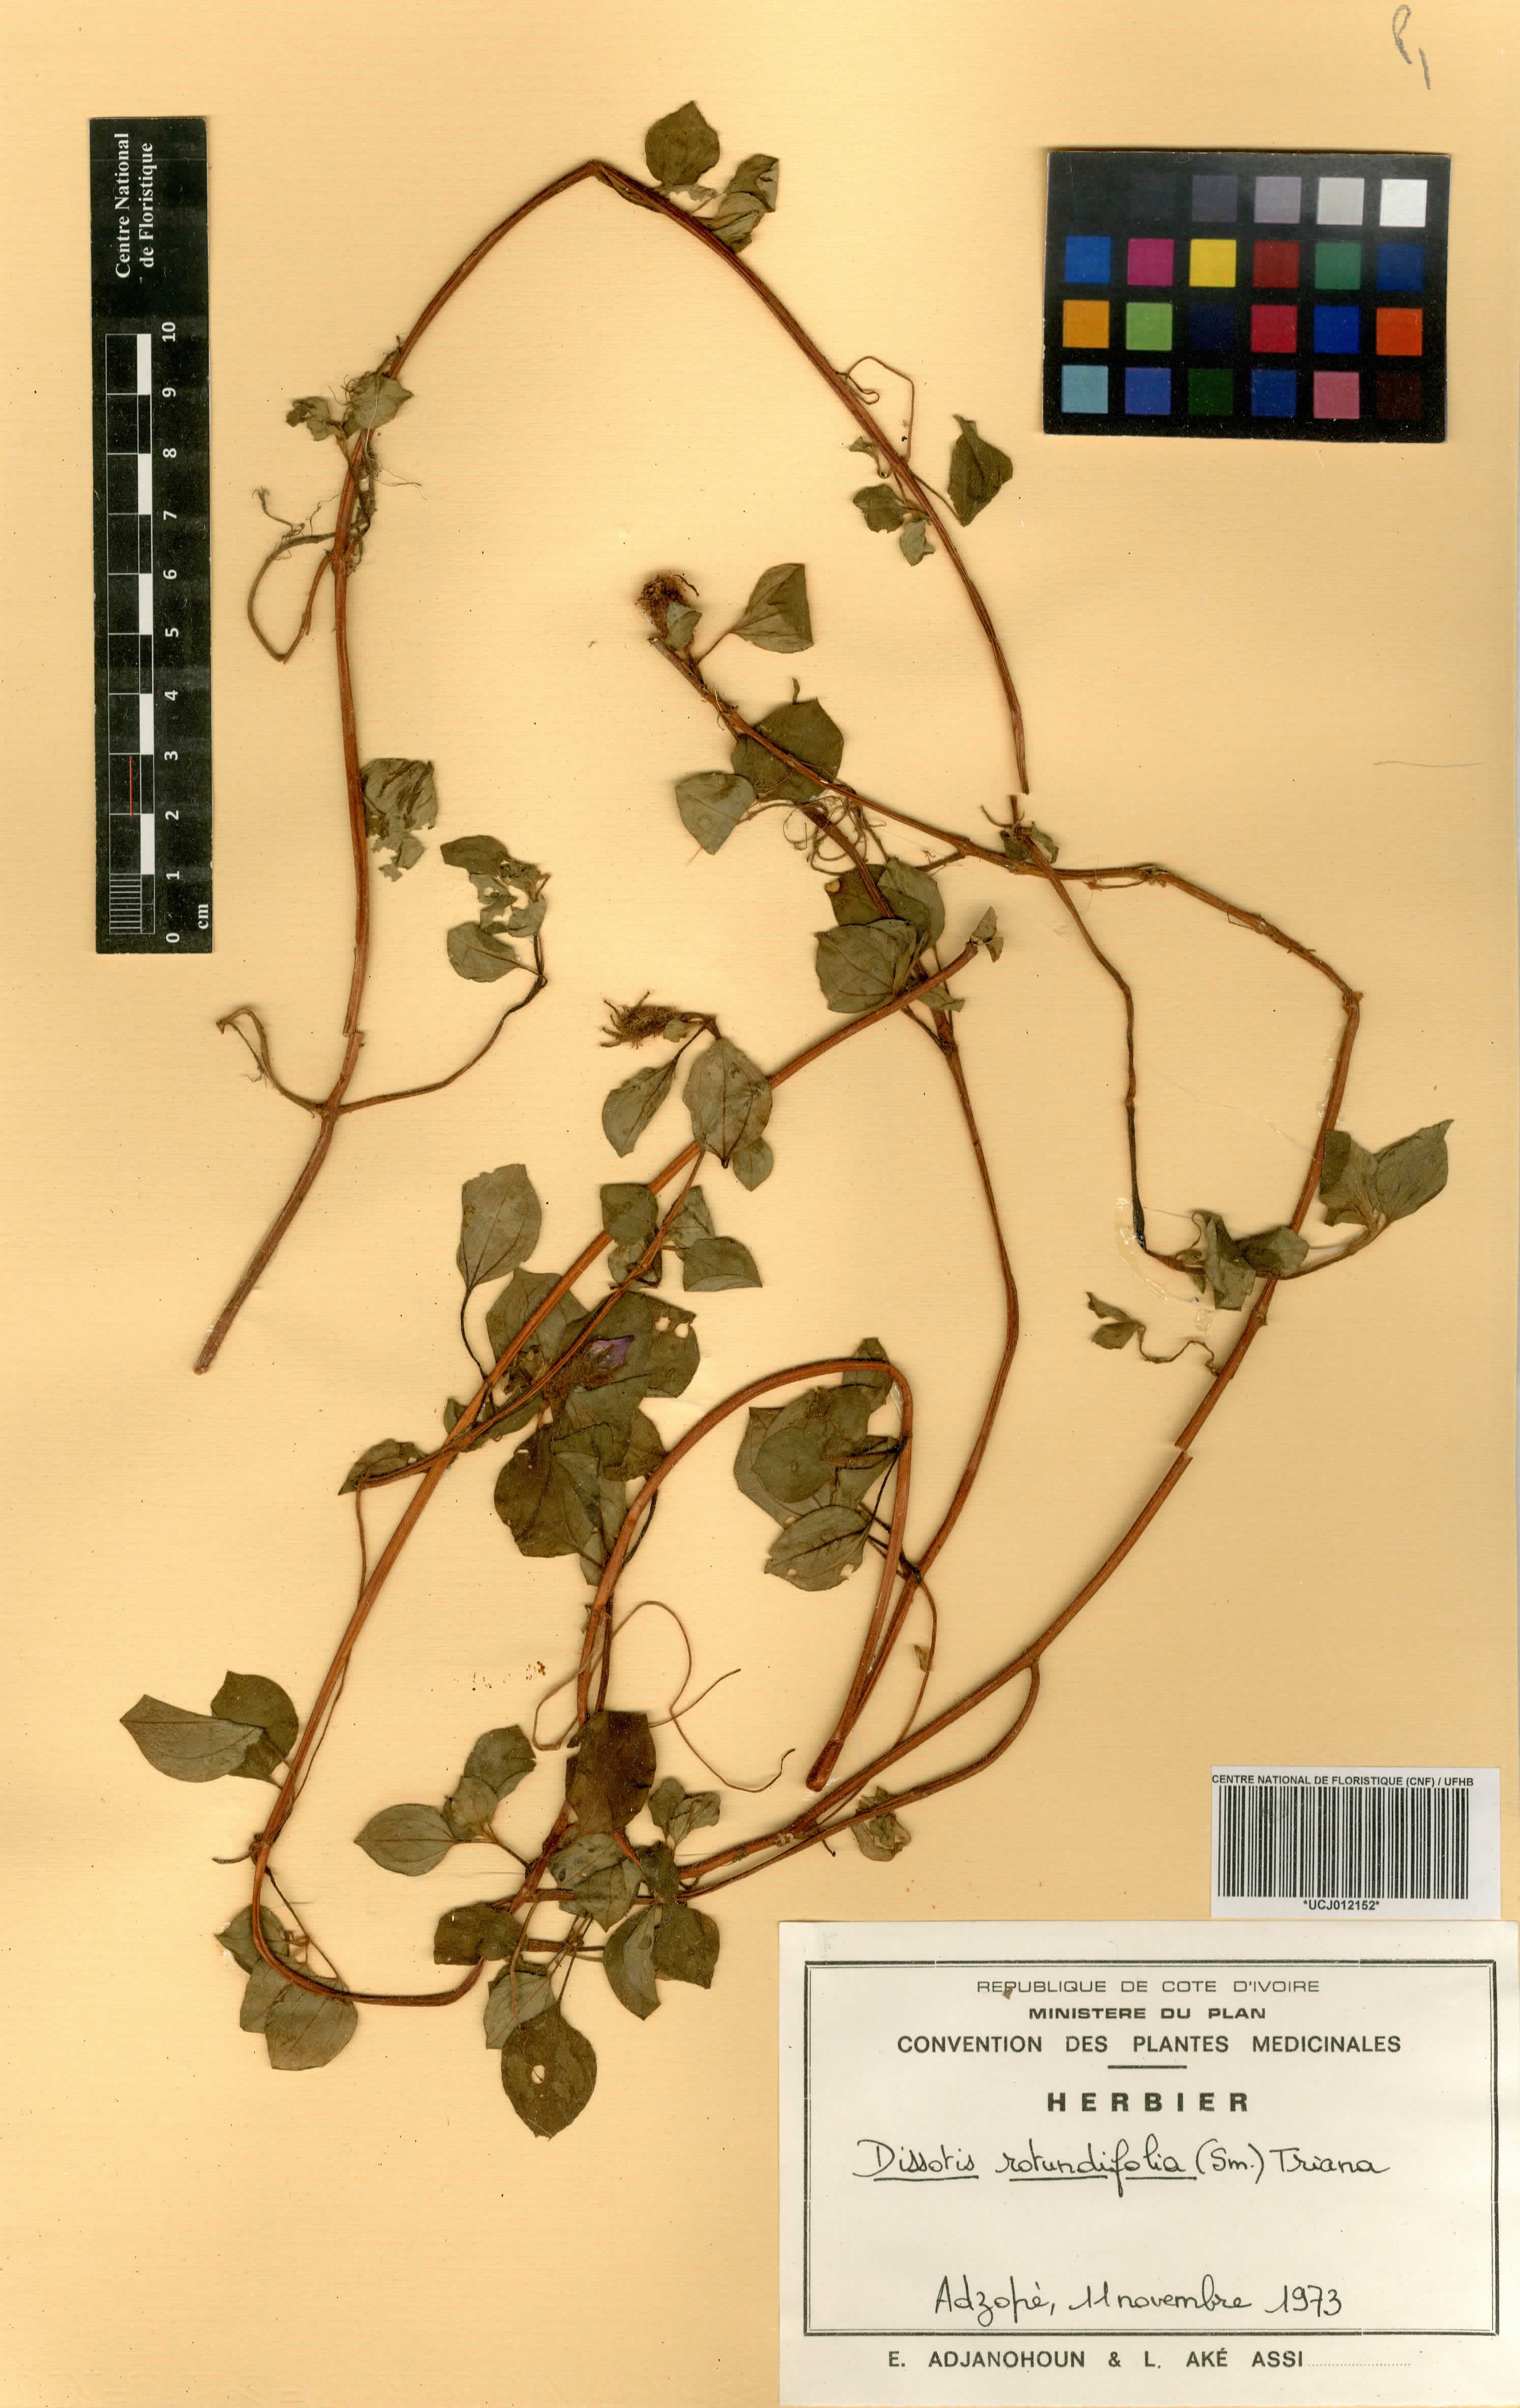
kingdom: Plantae
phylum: Tracheophyta
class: Magnoliopsida
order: Myrtales
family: Melastomataceae
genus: Heterotis
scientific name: Heterotis rotundifolia
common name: Pinklady
